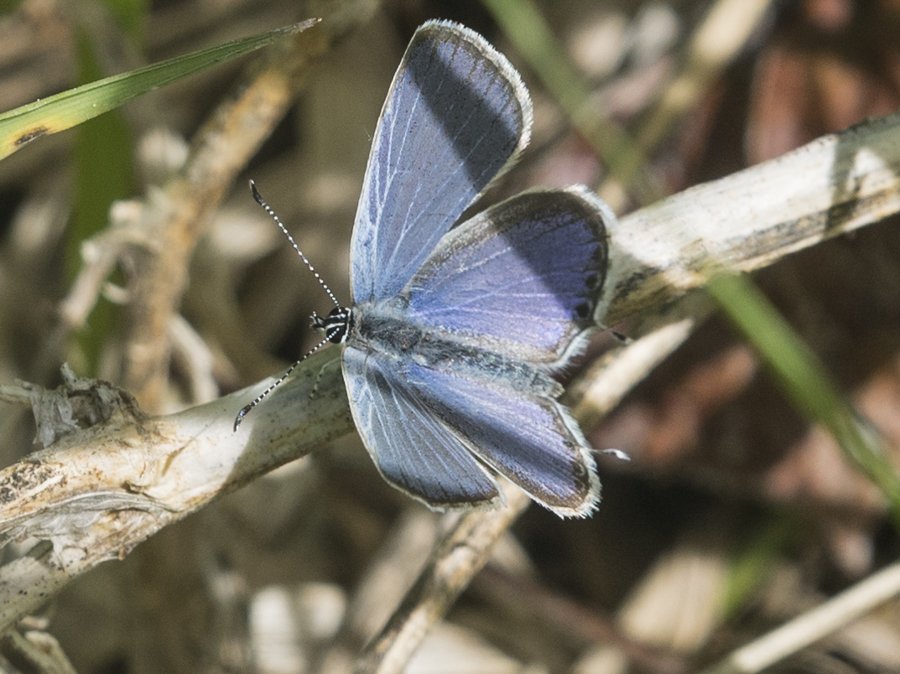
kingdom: Animalia
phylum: Arthropoda
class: Insecta
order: Lepidoptera
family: Lycaenidae
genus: Elkalyce
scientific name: Elkalyce amyntula
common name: Western Tailed-Blue
